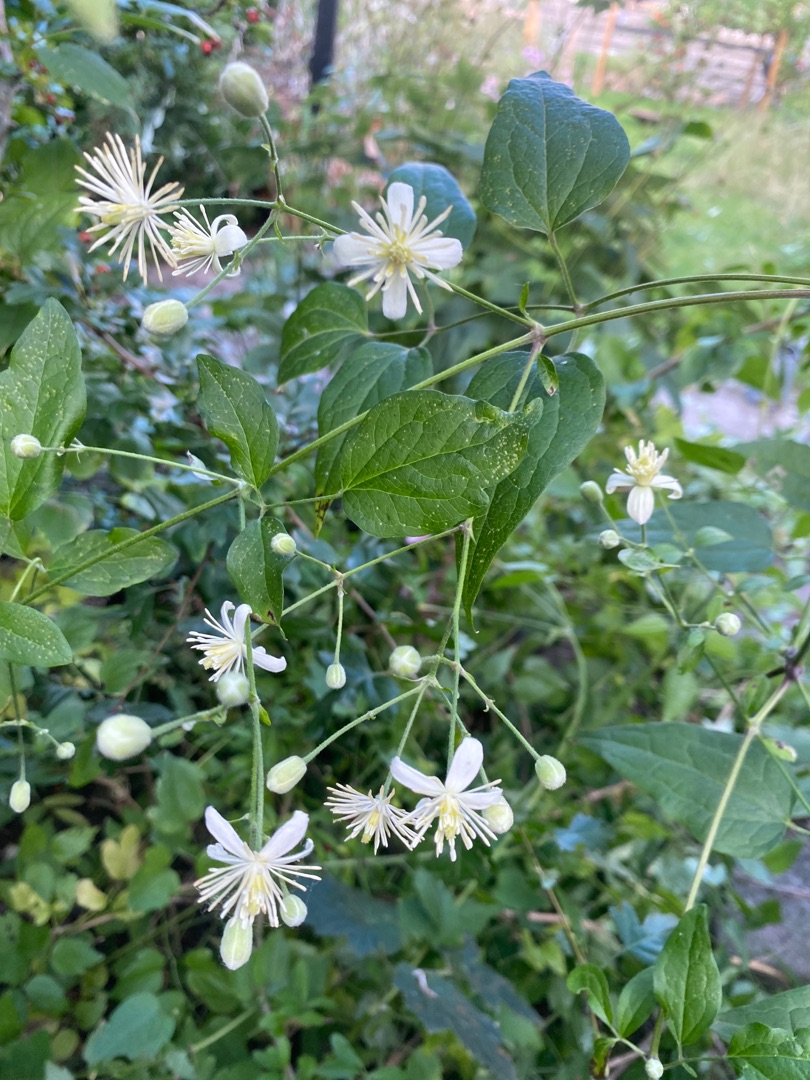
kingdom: Plantae
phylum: Tracheophyta
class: Magnoliopsida
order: Ranunculales
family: Ranunculaceae
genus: Clematis
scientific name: Clematis vitalba
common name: Skovranke
